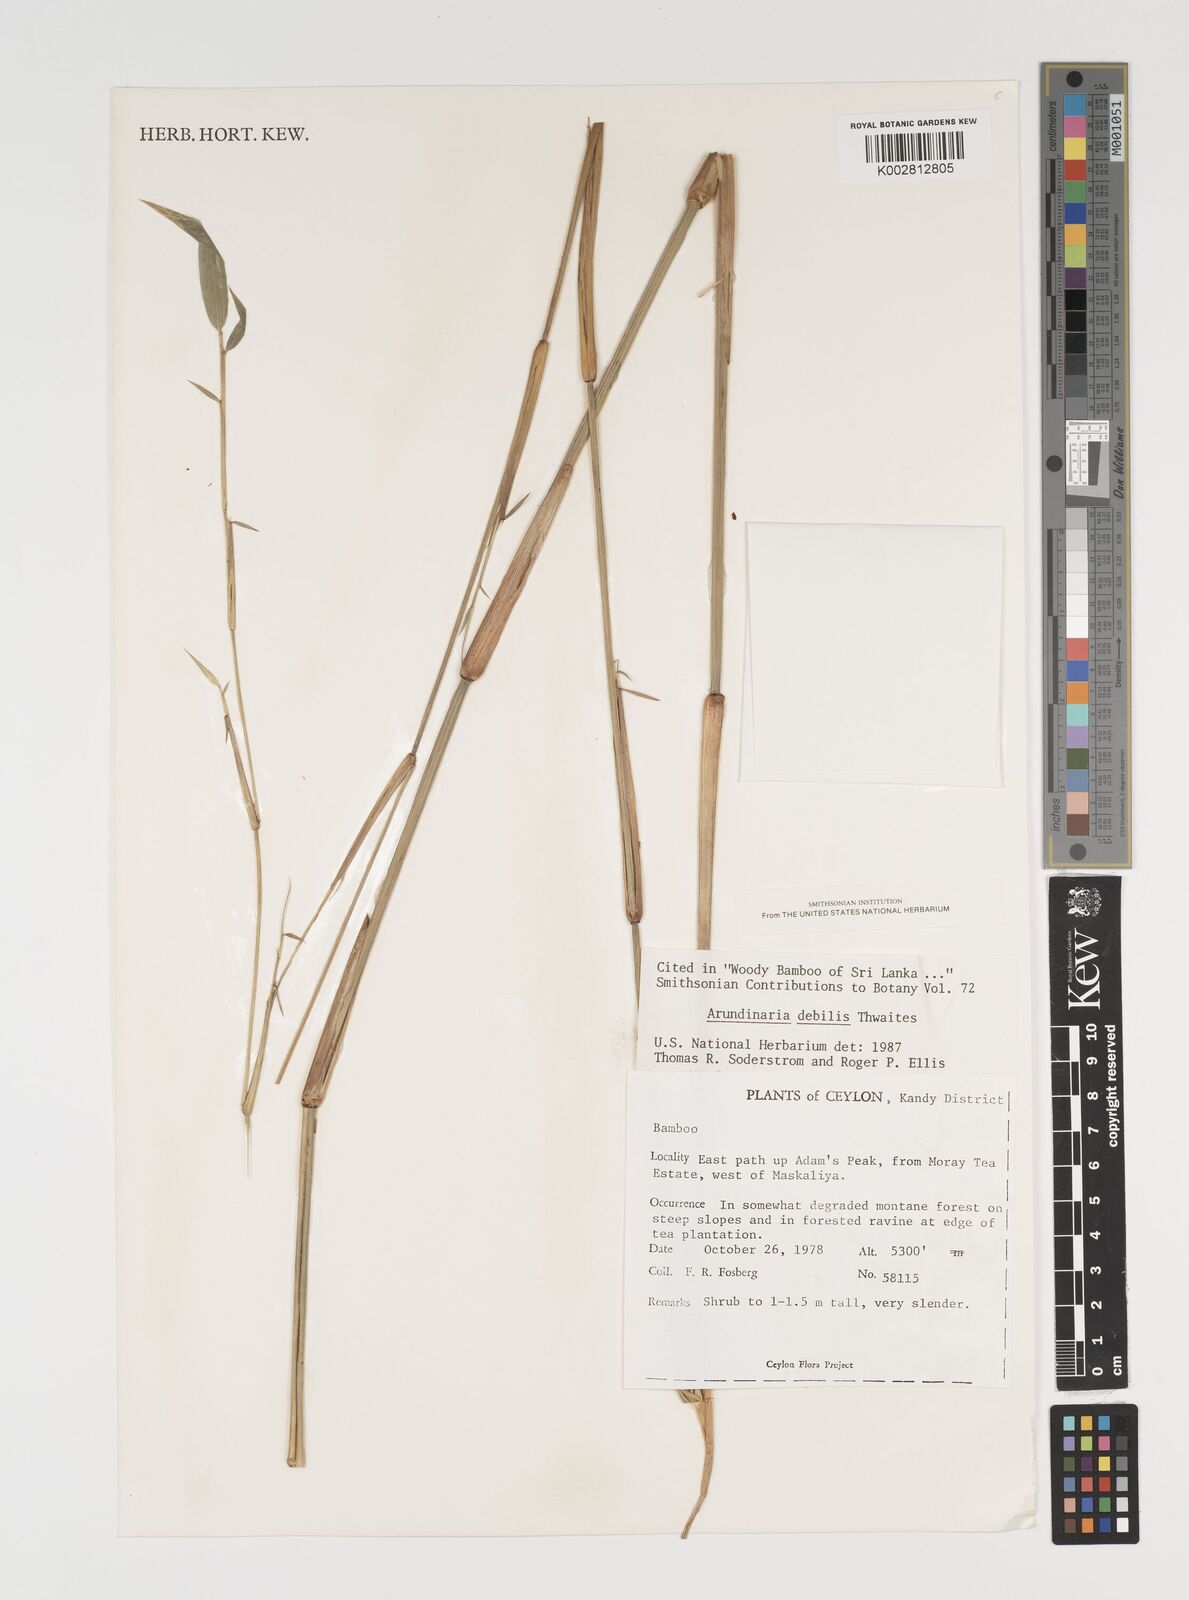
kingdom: Plantae
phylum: Tracheophyta
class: Liliopsida
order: Poales
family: Poaceae
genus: Kuruna
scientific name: Kuruna debilis
